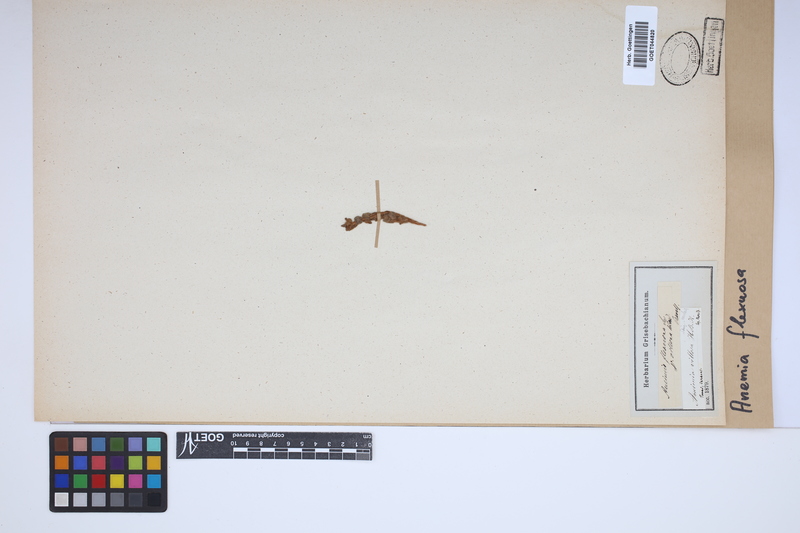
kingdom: Plantae
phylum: Tracheophyta
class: Polypodiopsida
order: Schizaeales
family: Anemiaceae
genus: Anemia
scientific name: Anemia flexuosa
